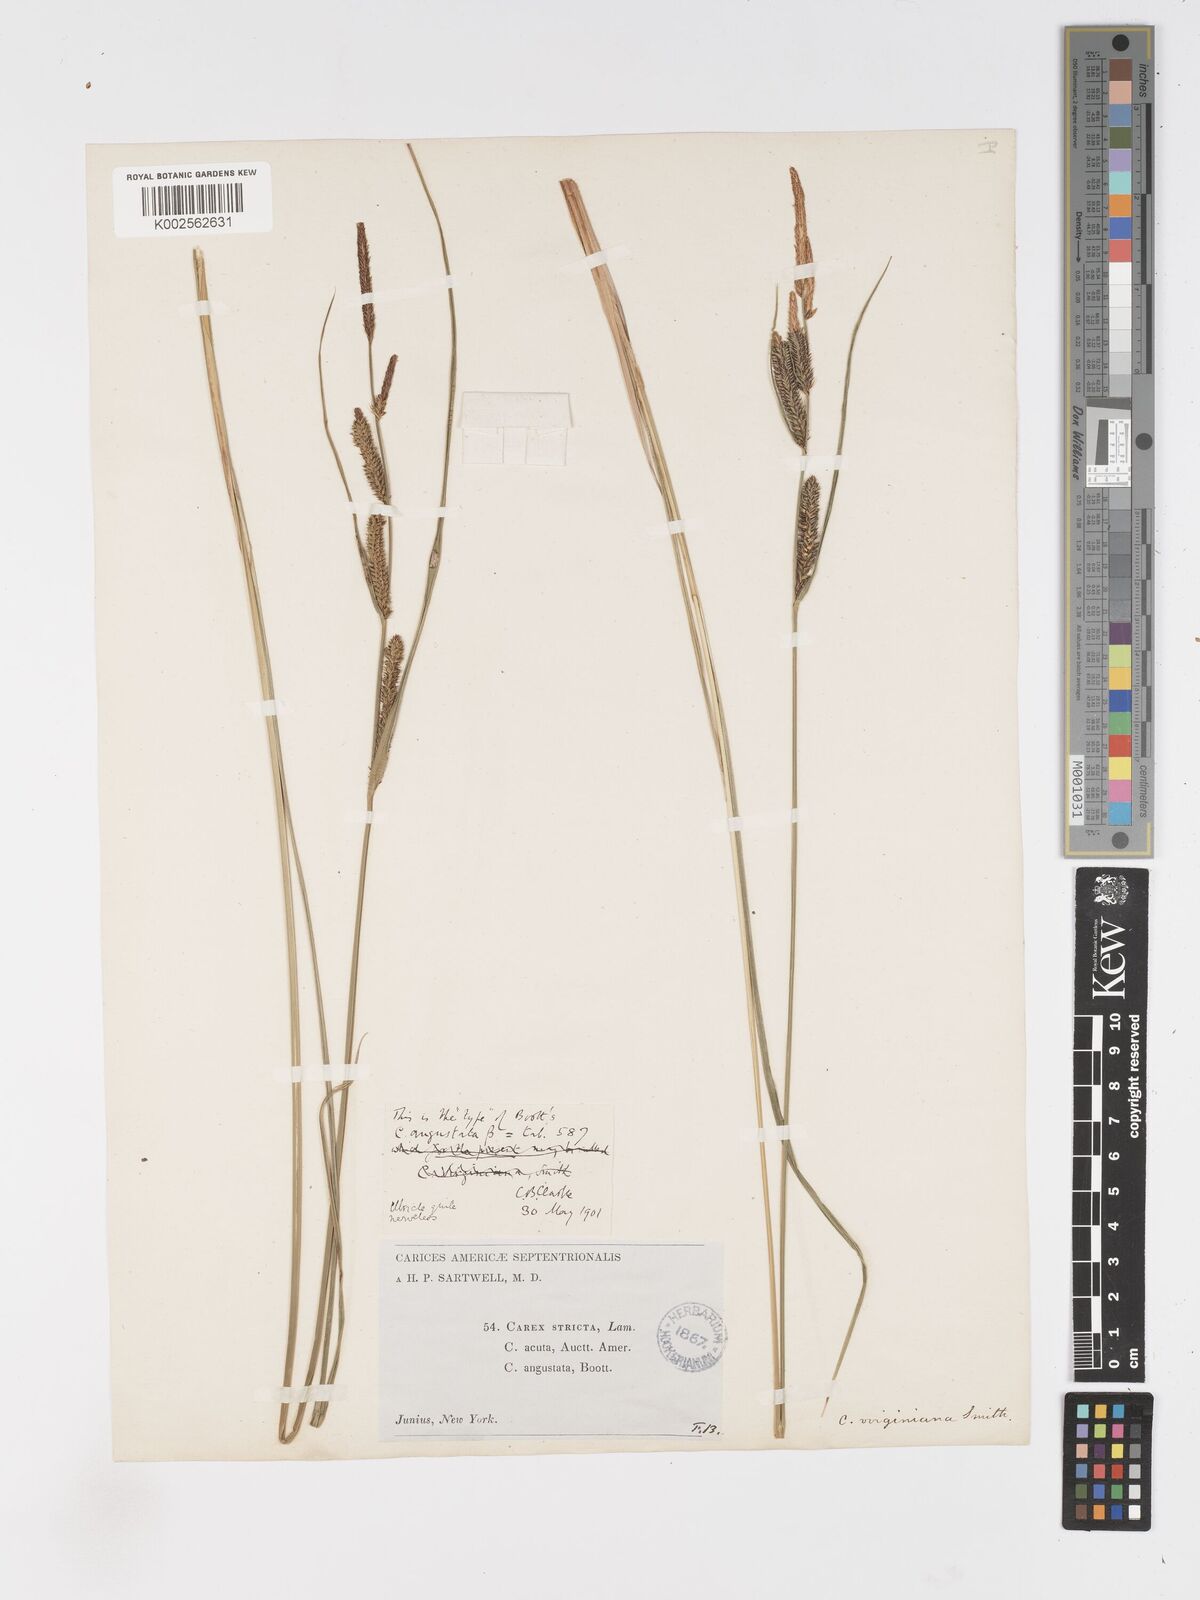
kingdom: Plantae
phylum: Tracheophyta
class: Liliopsida
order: Poales
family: Cyperaceae
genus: Carex
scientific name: Carex stricta
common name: Hummock sedge
